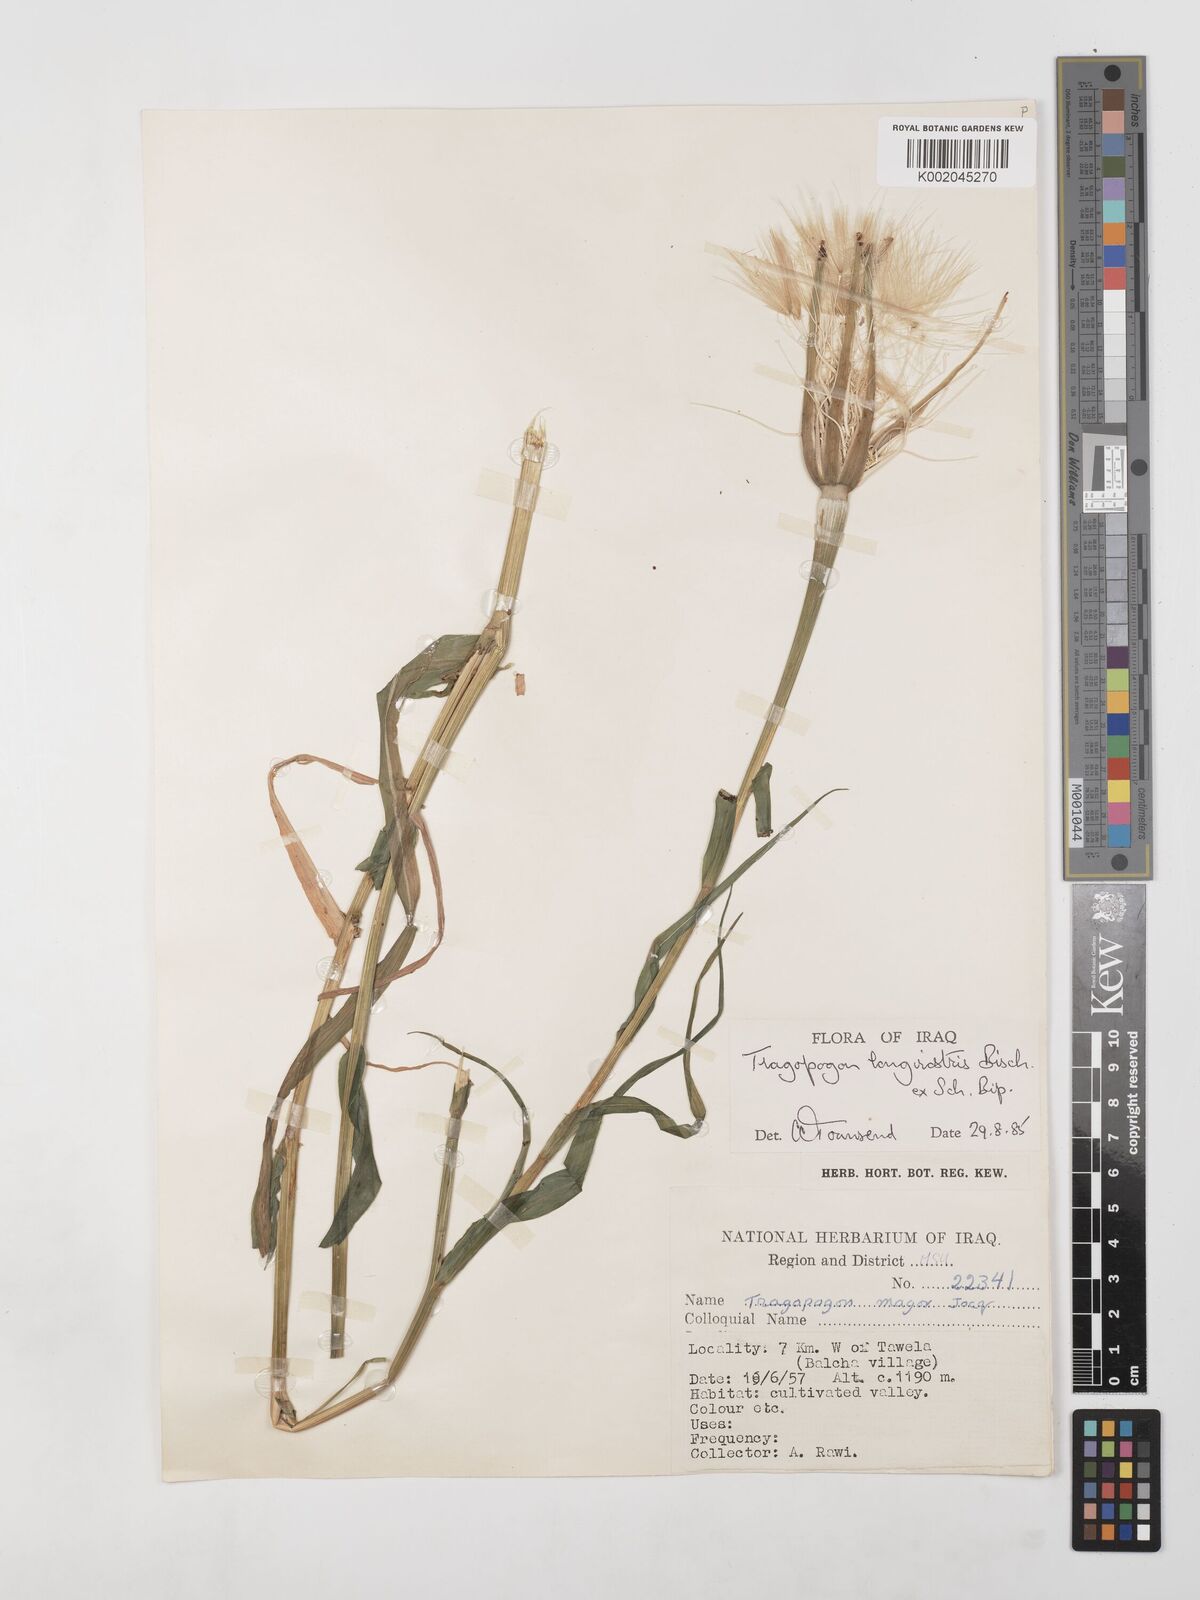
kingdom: Plantae
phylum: Tracheophyta
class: Magnoliopsida
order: Asterales
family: Asteraceae
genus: Tragopogon
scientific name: Tragopogon coelesyriacus
